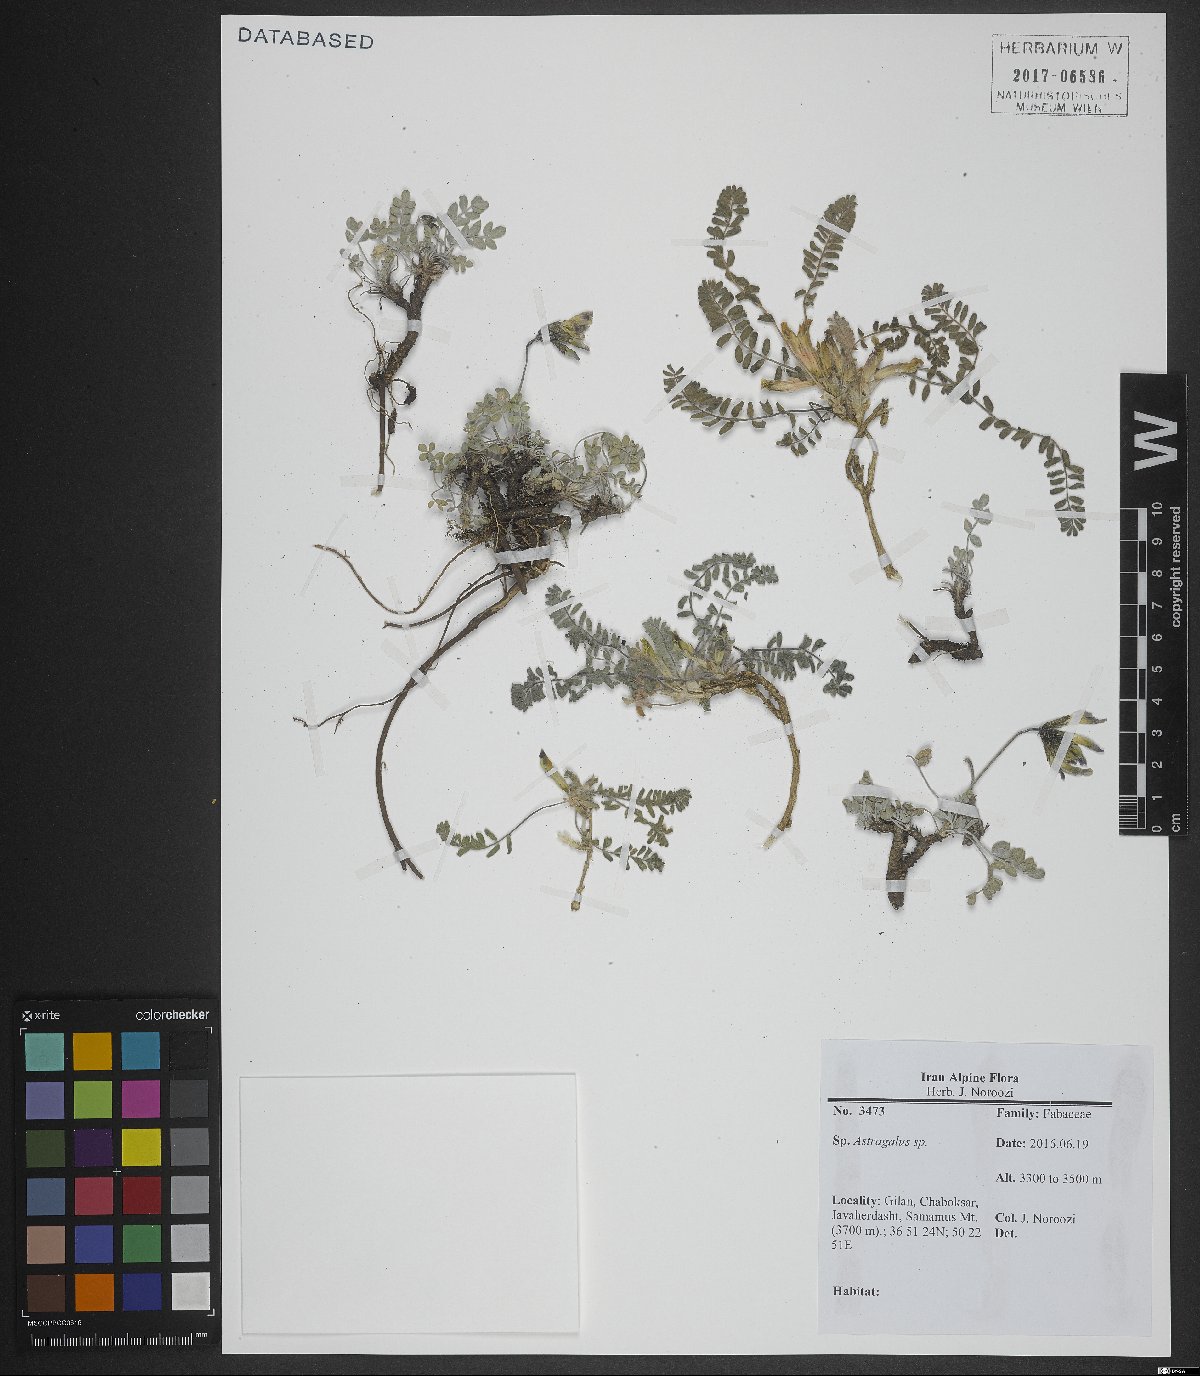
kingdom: Plantae
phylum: Tracheophyta
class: Magnoliopsida
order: Fabales
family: Fabaceae
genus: Astragalus
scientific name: Astragalus
